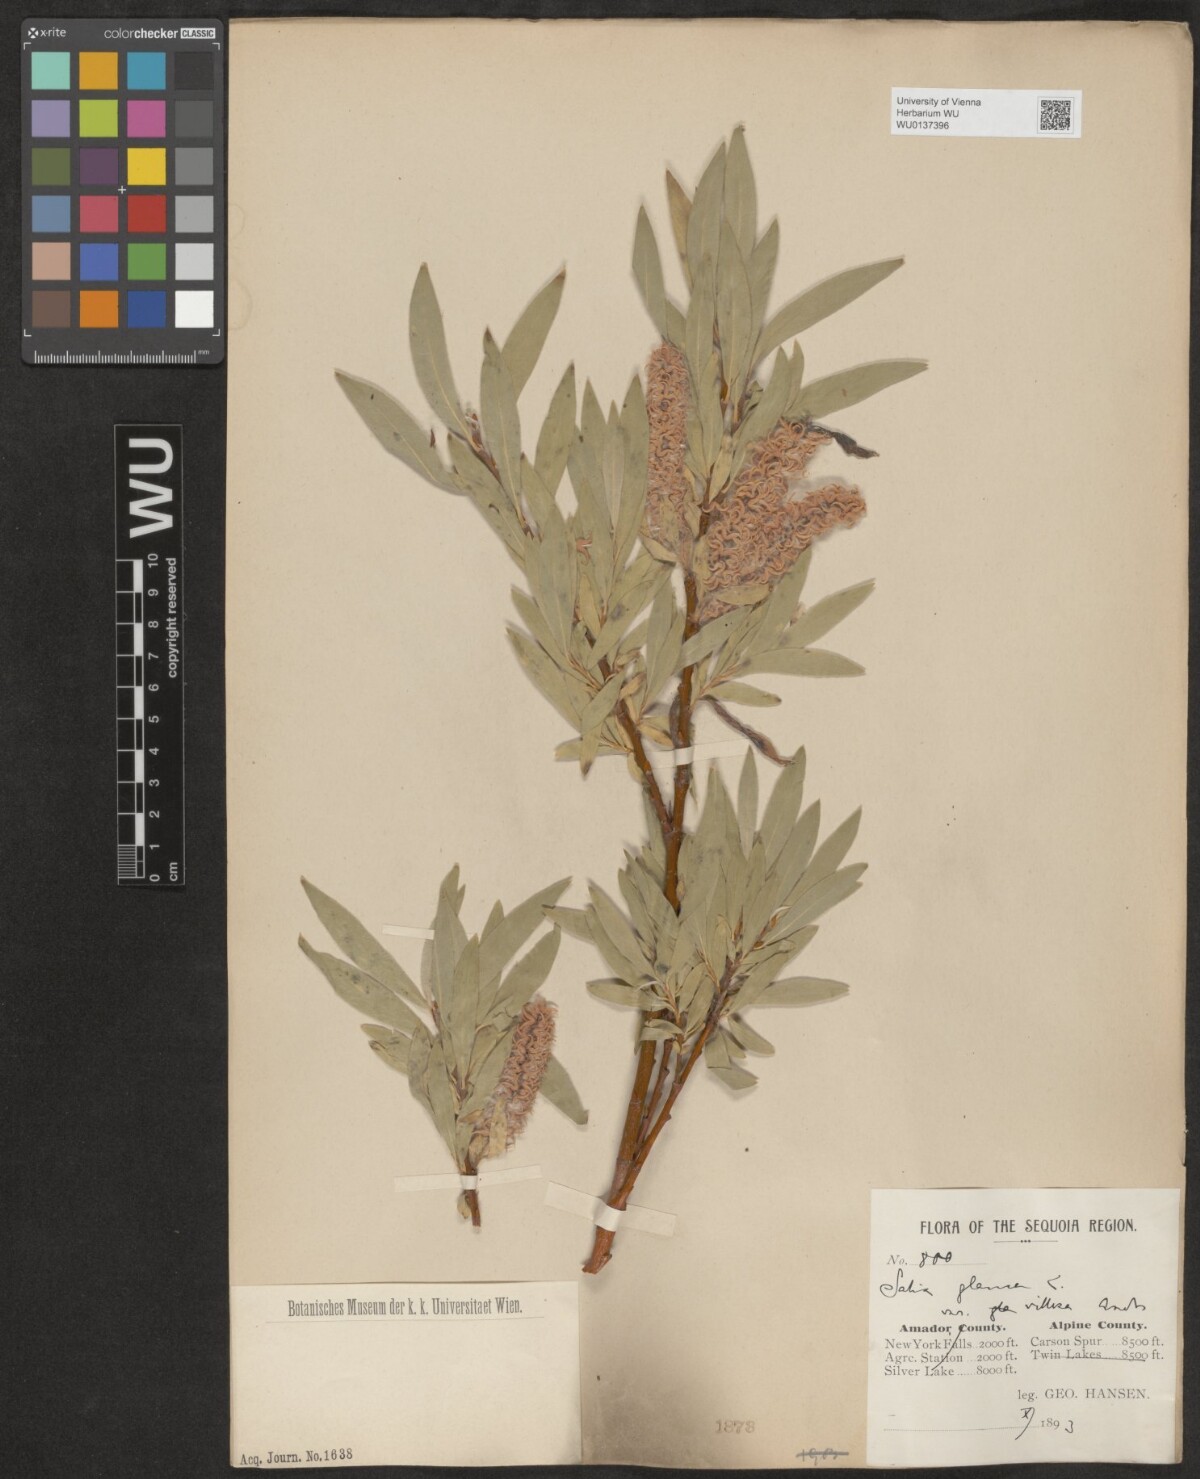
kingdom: Plantae
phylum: Tracheophyta
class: Magnoliopsida
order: Malpighiales
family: Salicaceae
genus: Salix
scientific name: Salix glauca
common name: Glaucous willow
